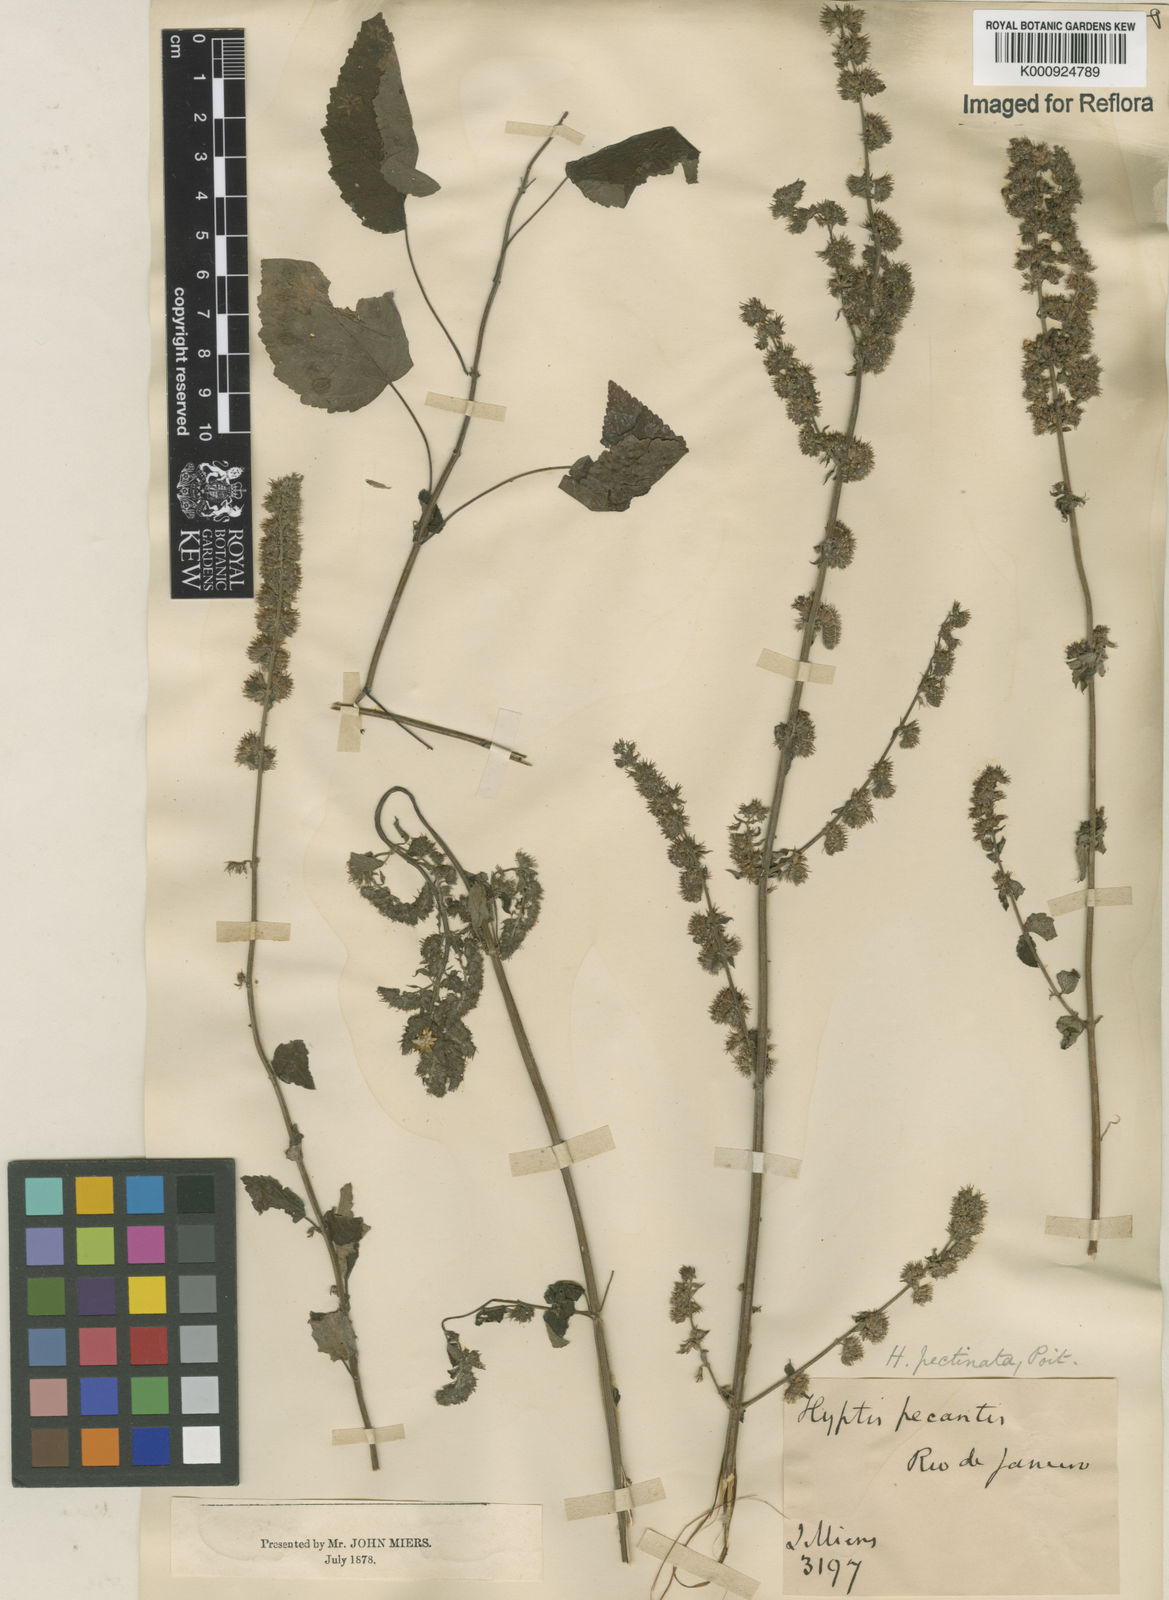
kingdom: Plantae
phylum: Tracheophyta
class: Magnoliopsida
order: Lamiales
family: Lamiaceae
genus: Mesosphaerum
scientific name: Mesosphaerum pectinatum
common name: Comb hyptis
